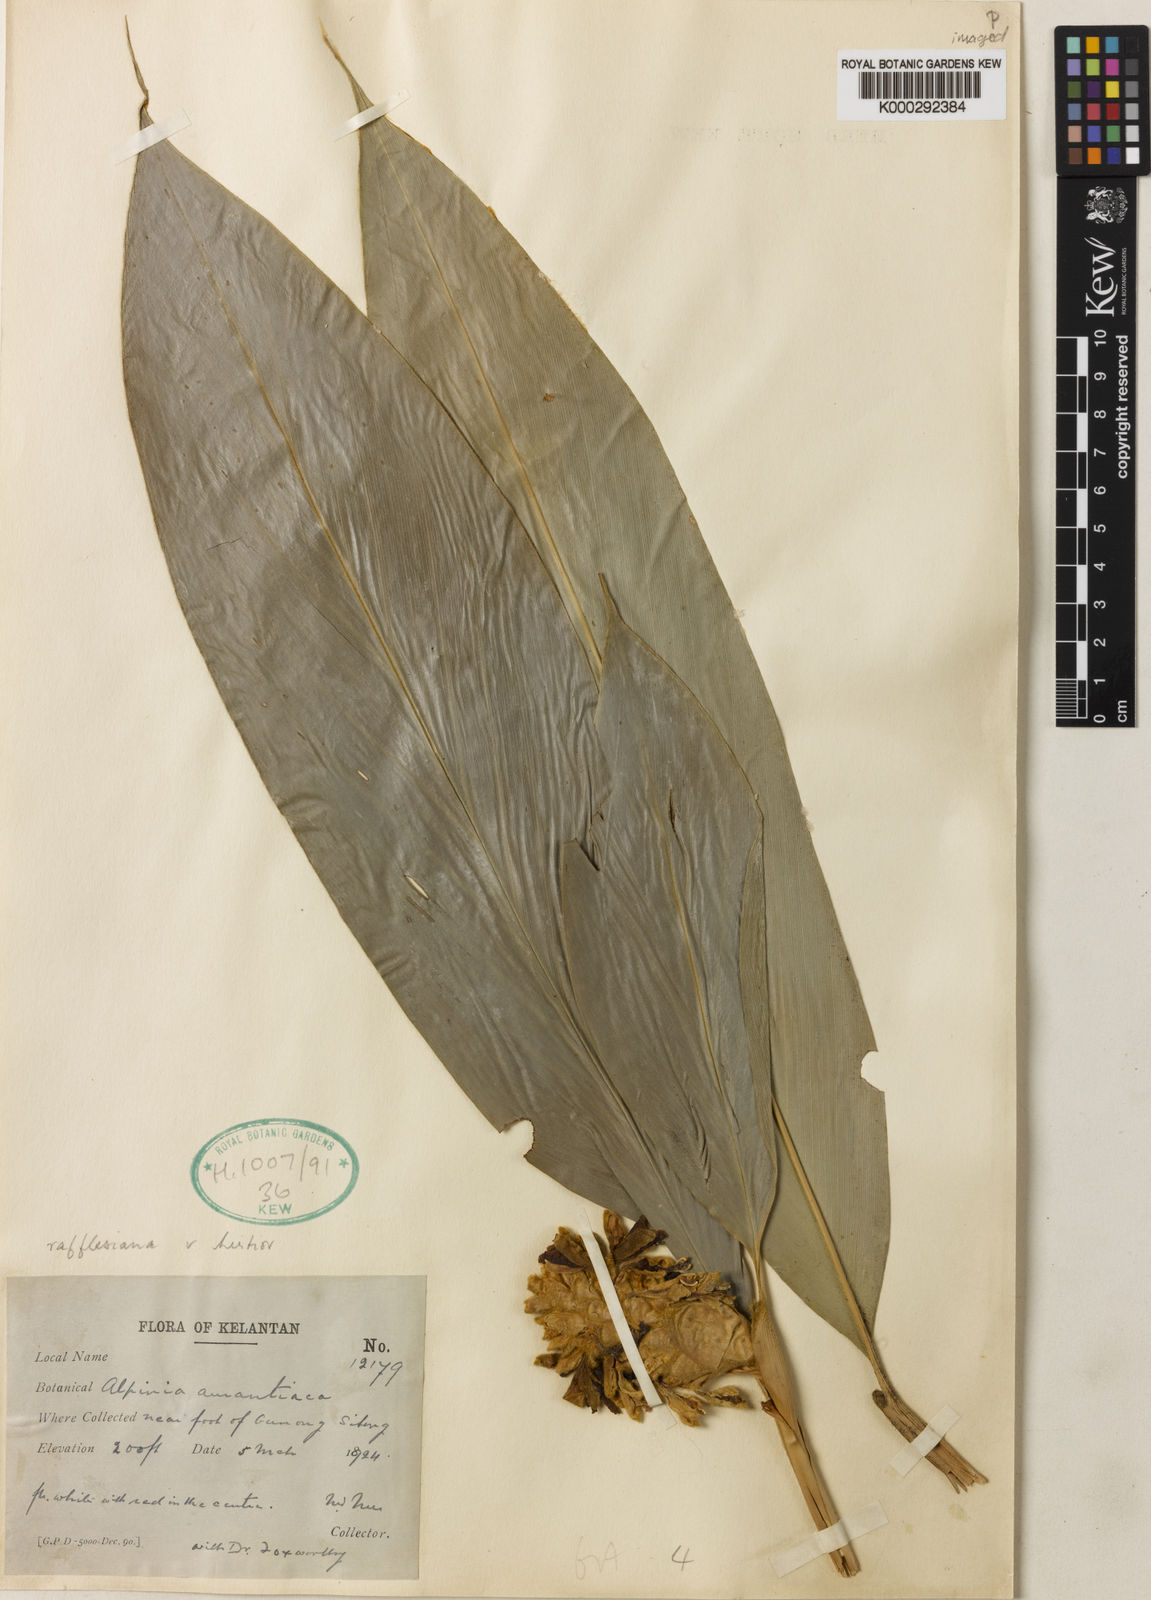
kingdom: Plantae
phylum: Tracheophyta
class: Liliopsida
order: Zingiberales
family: Zingiberaceae
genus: Alpinia
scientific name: Alpinia rafflesiana
